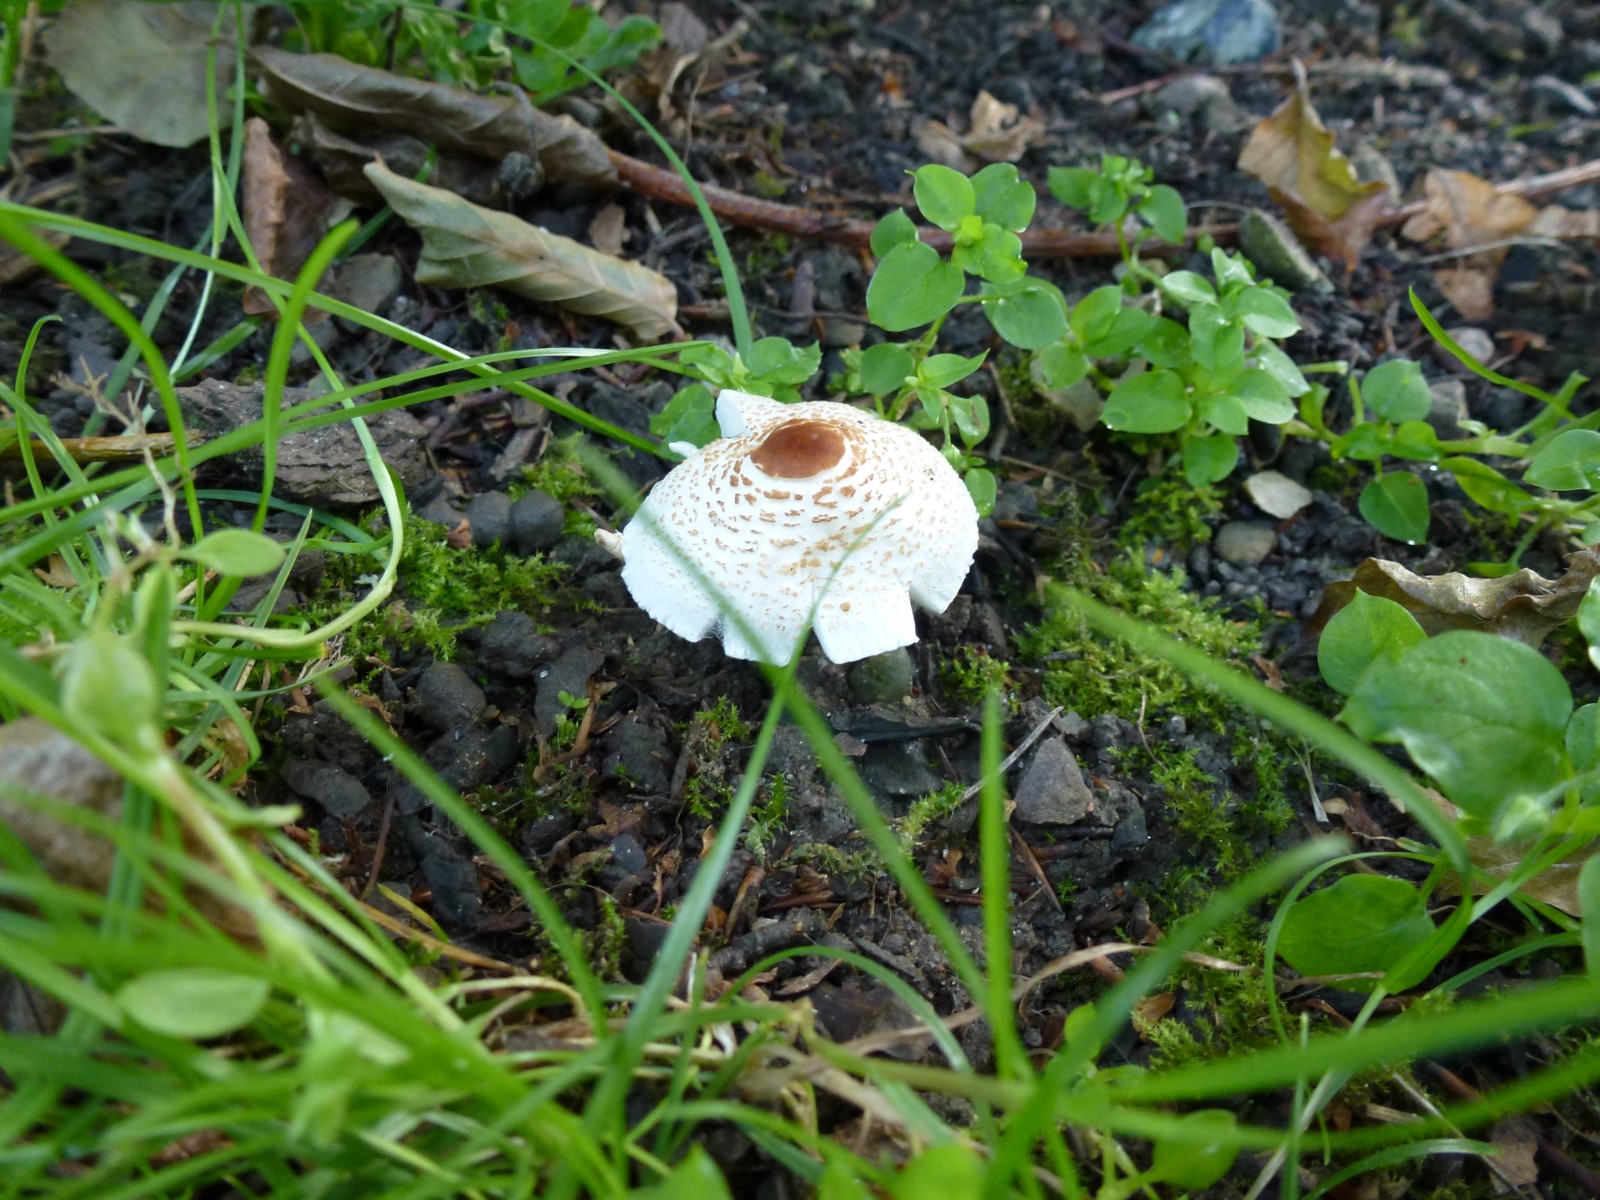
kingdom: Fungi
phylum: Basidiomycota
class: Agaricomycetes
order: Agaricales
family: Agaricaceae
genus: Lepiota
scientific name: Lepiota cristata
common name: stinkende parasolhat
